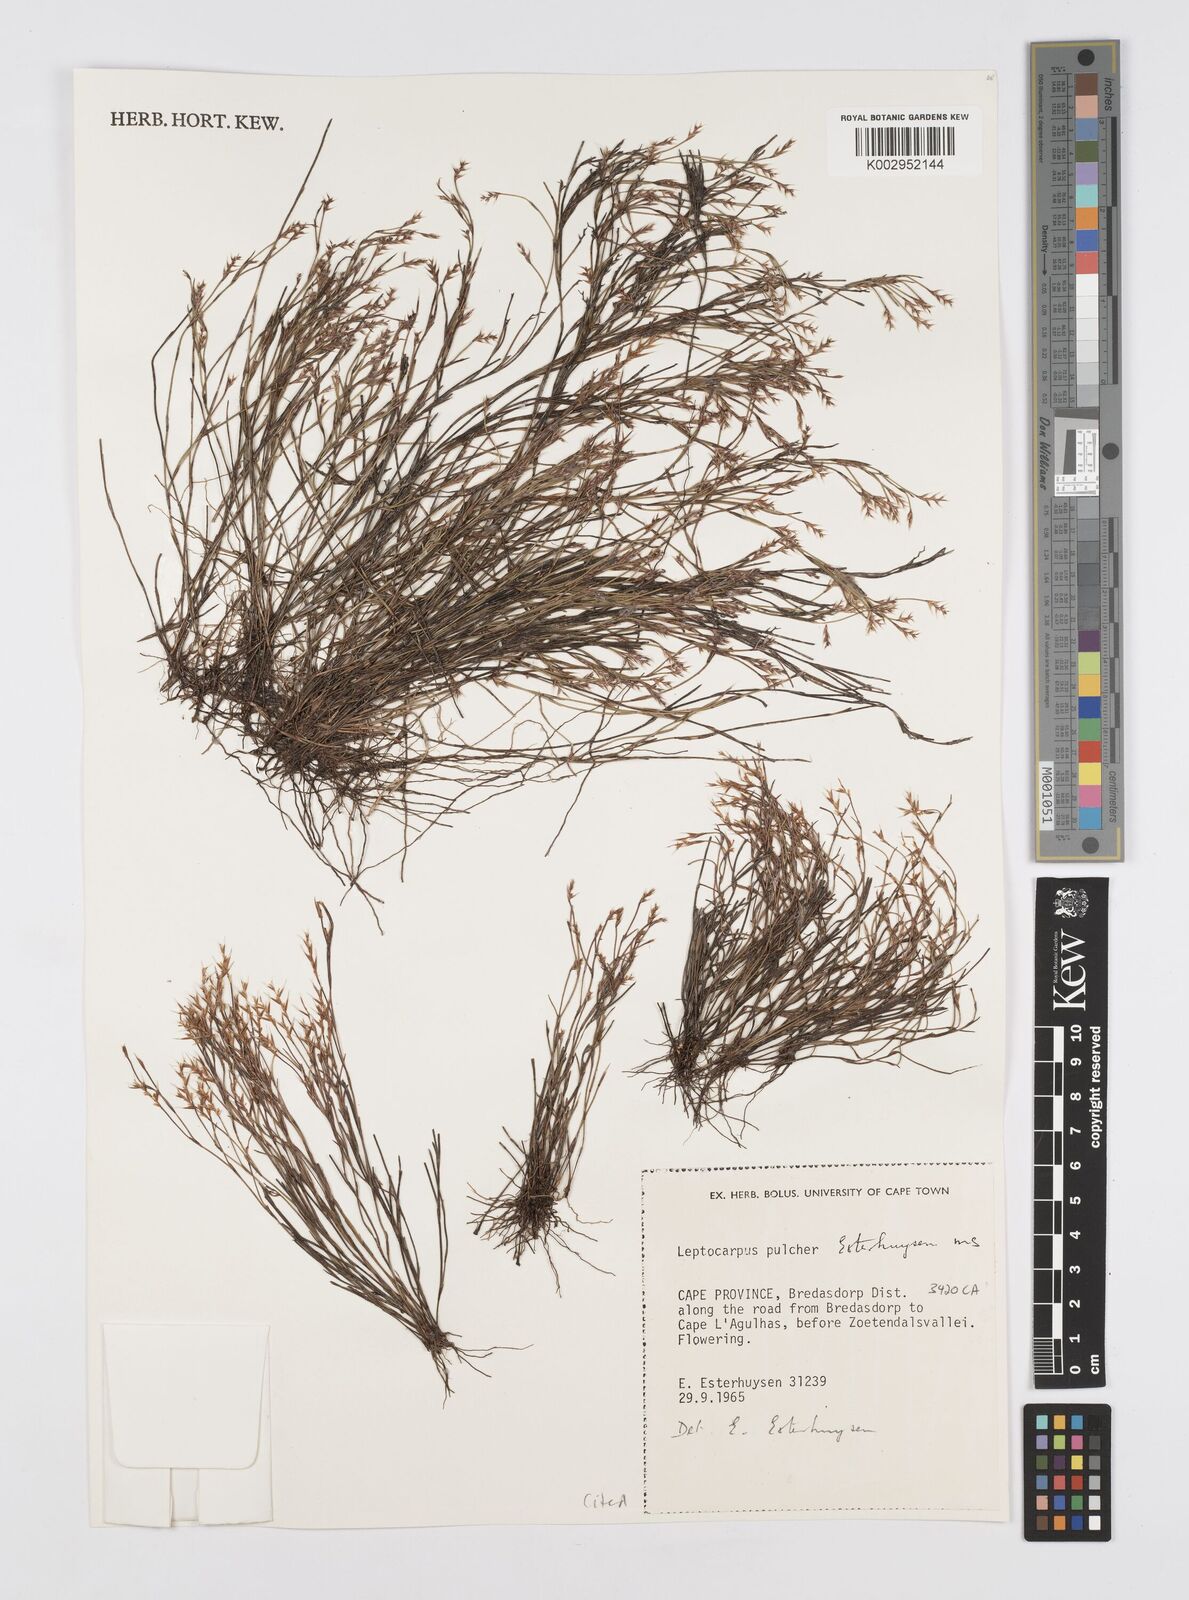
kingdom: Plantae
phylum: Tracheophyta
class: Liliopsida
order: Poales
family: Restionaceae
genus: Restio
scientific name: Restio pulcher
